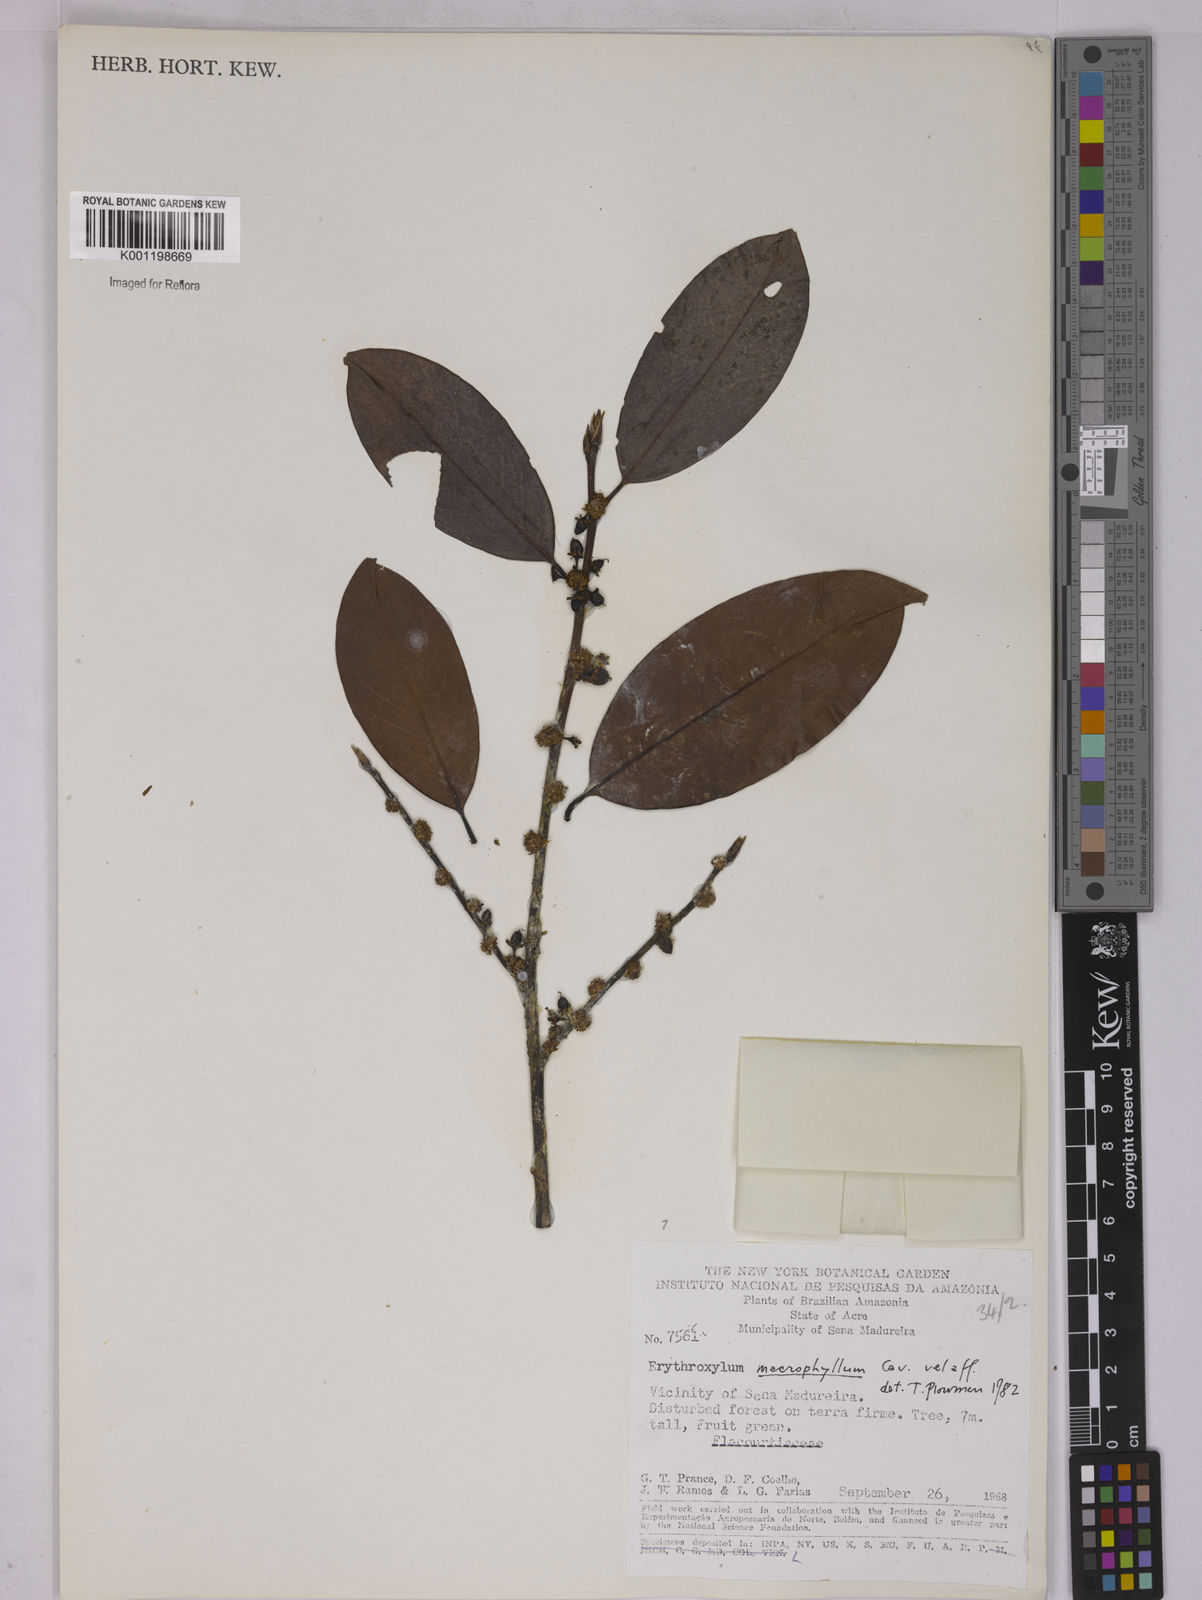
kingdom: Plantae
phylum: Tracheophyta
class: Magnoliopsida
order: Malpighiales
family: Erythroxylaceae
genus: Erythroxylum
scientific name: Erythroxylum macrophyllum
